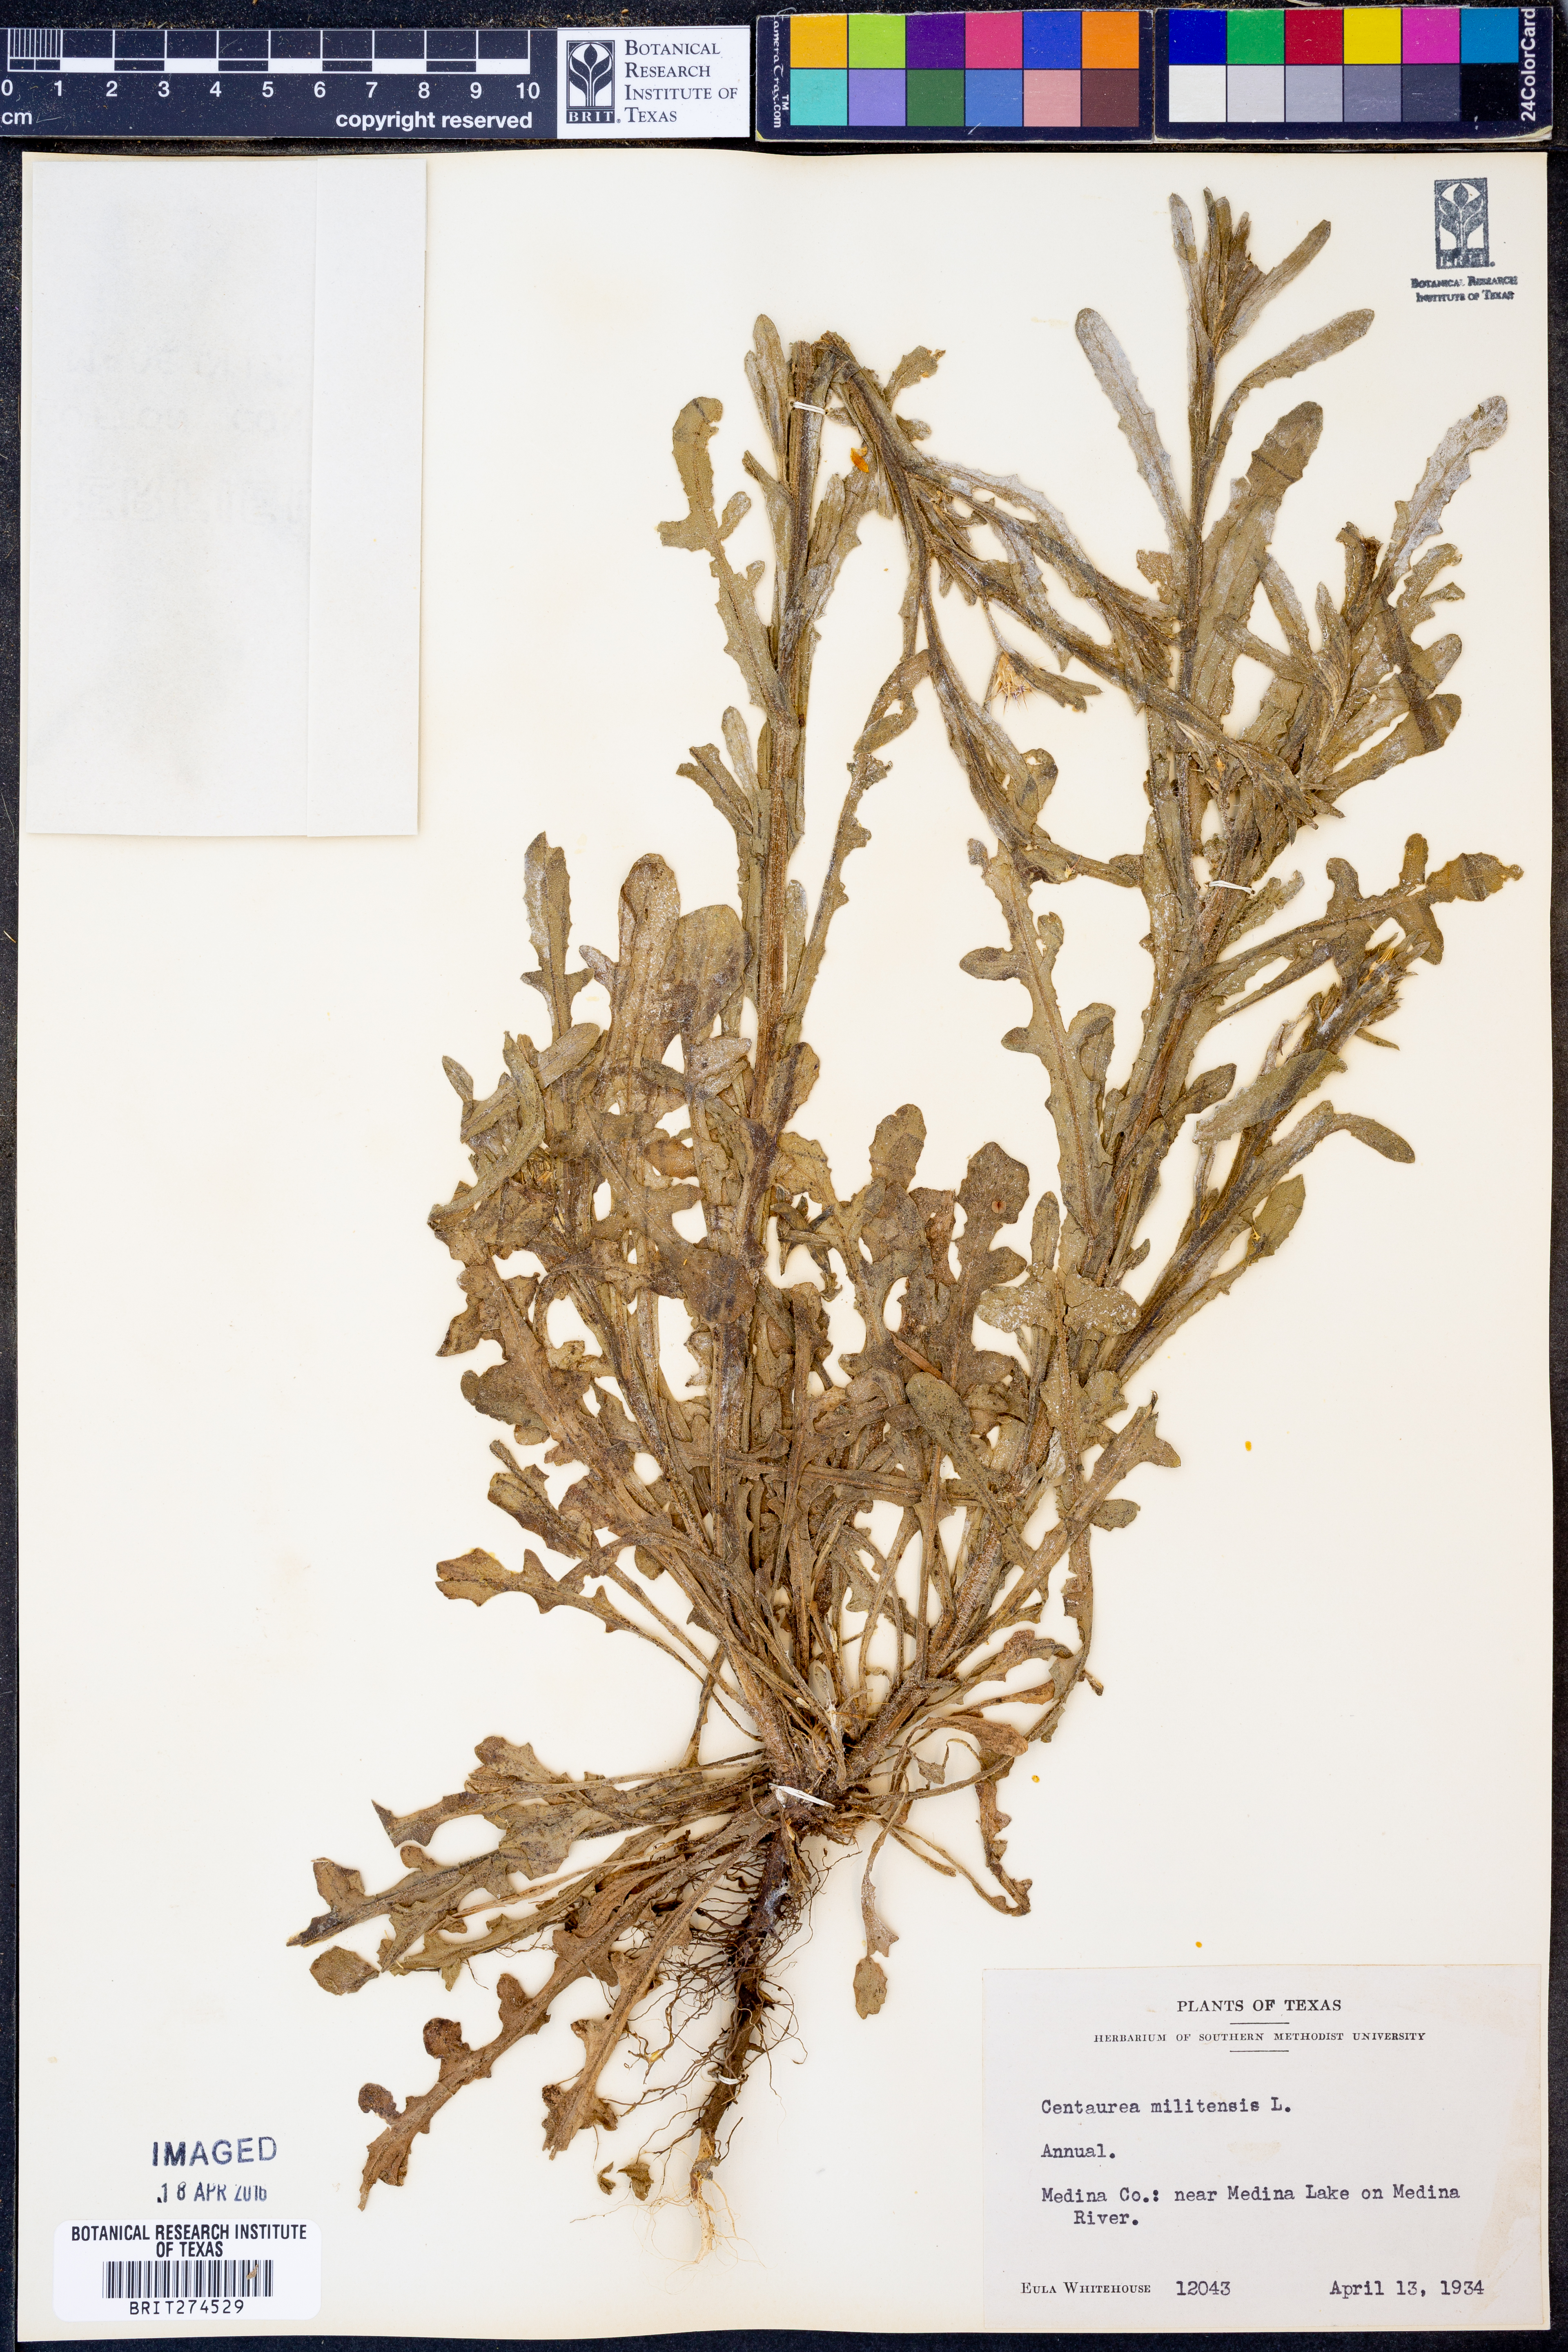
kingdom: Plantae
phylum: Tracheophyta
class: Magnoliopsida
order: Asterales
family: Asteraceae
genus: Centaurea
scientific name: Centaurea melitensis
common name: Maltese star-thistle
